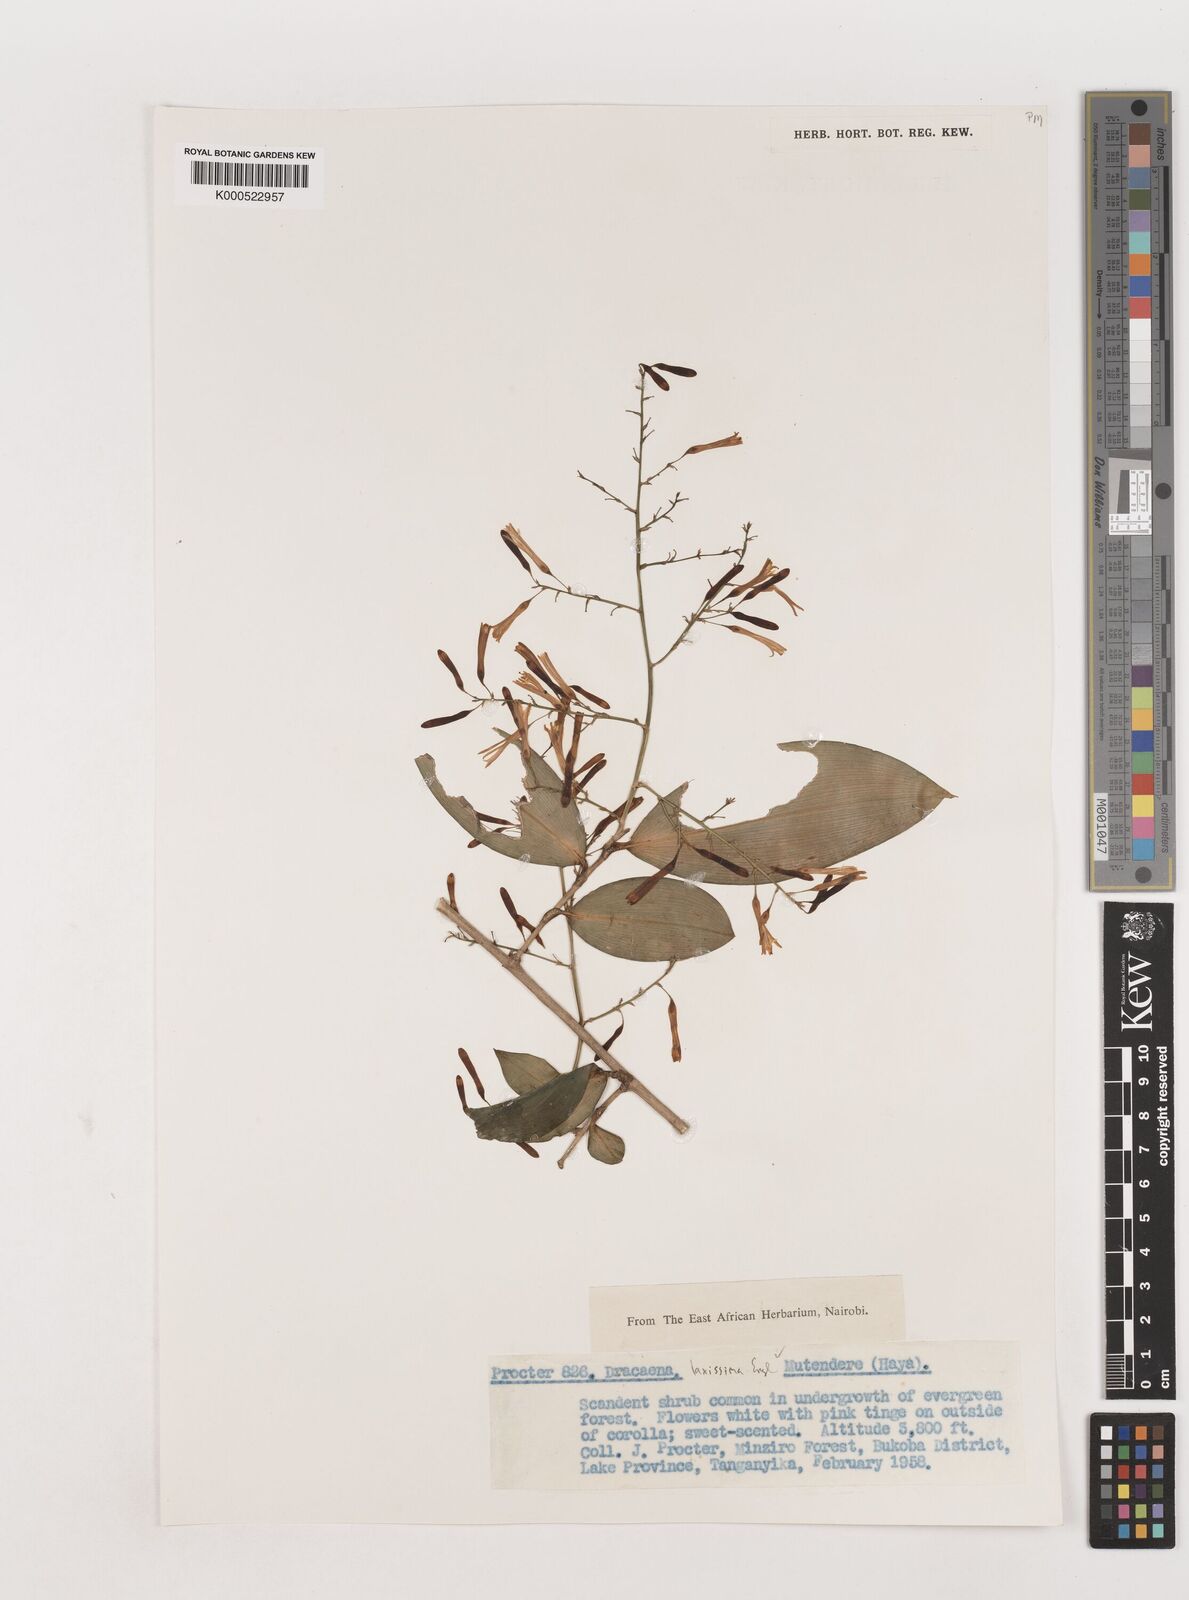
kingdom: Plantae
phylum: Tracheophyta
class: Liliopsida
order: Asparagales
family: Asparagaceae
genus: Dracaena
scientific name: Dracaena laxissima
